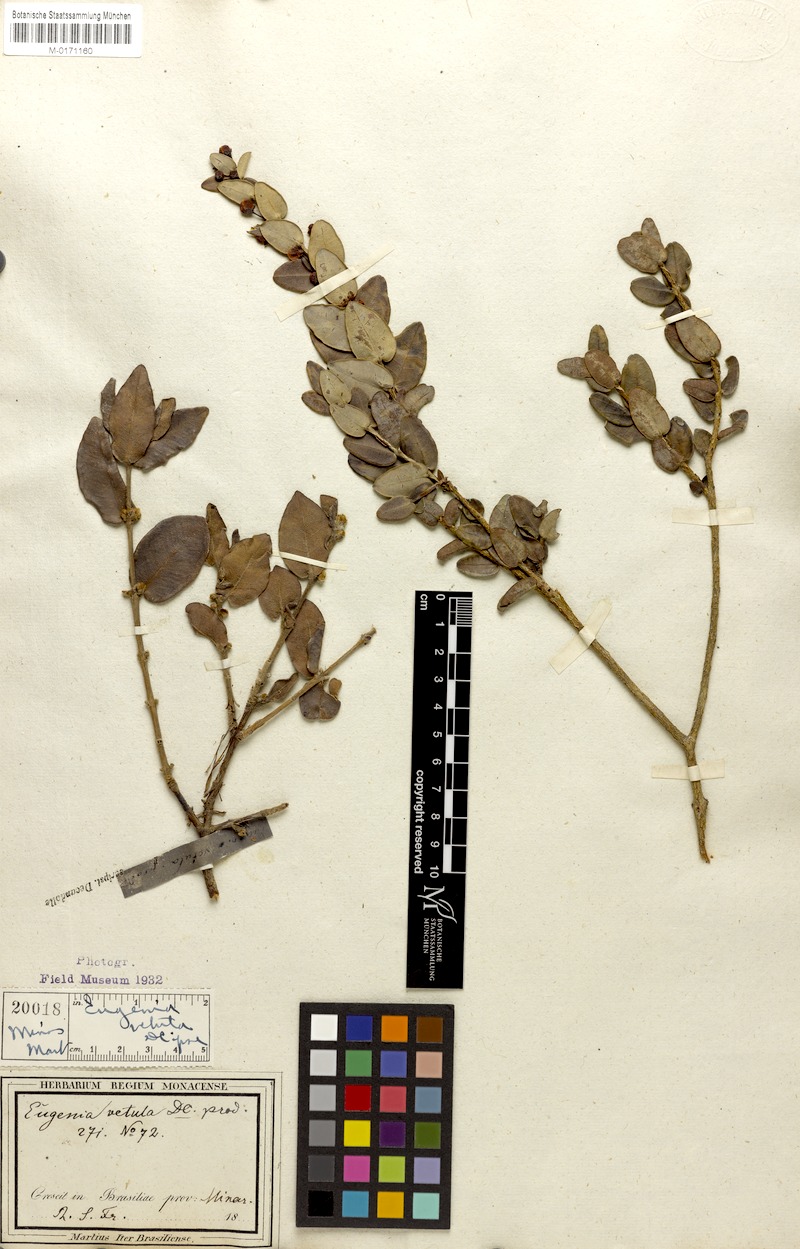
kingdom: Plantae
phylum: Tracheophyta
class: Magnoliopsida
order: Myrtales
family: Myrtaceae
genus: Eugenia
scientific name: Eugenia vetula
